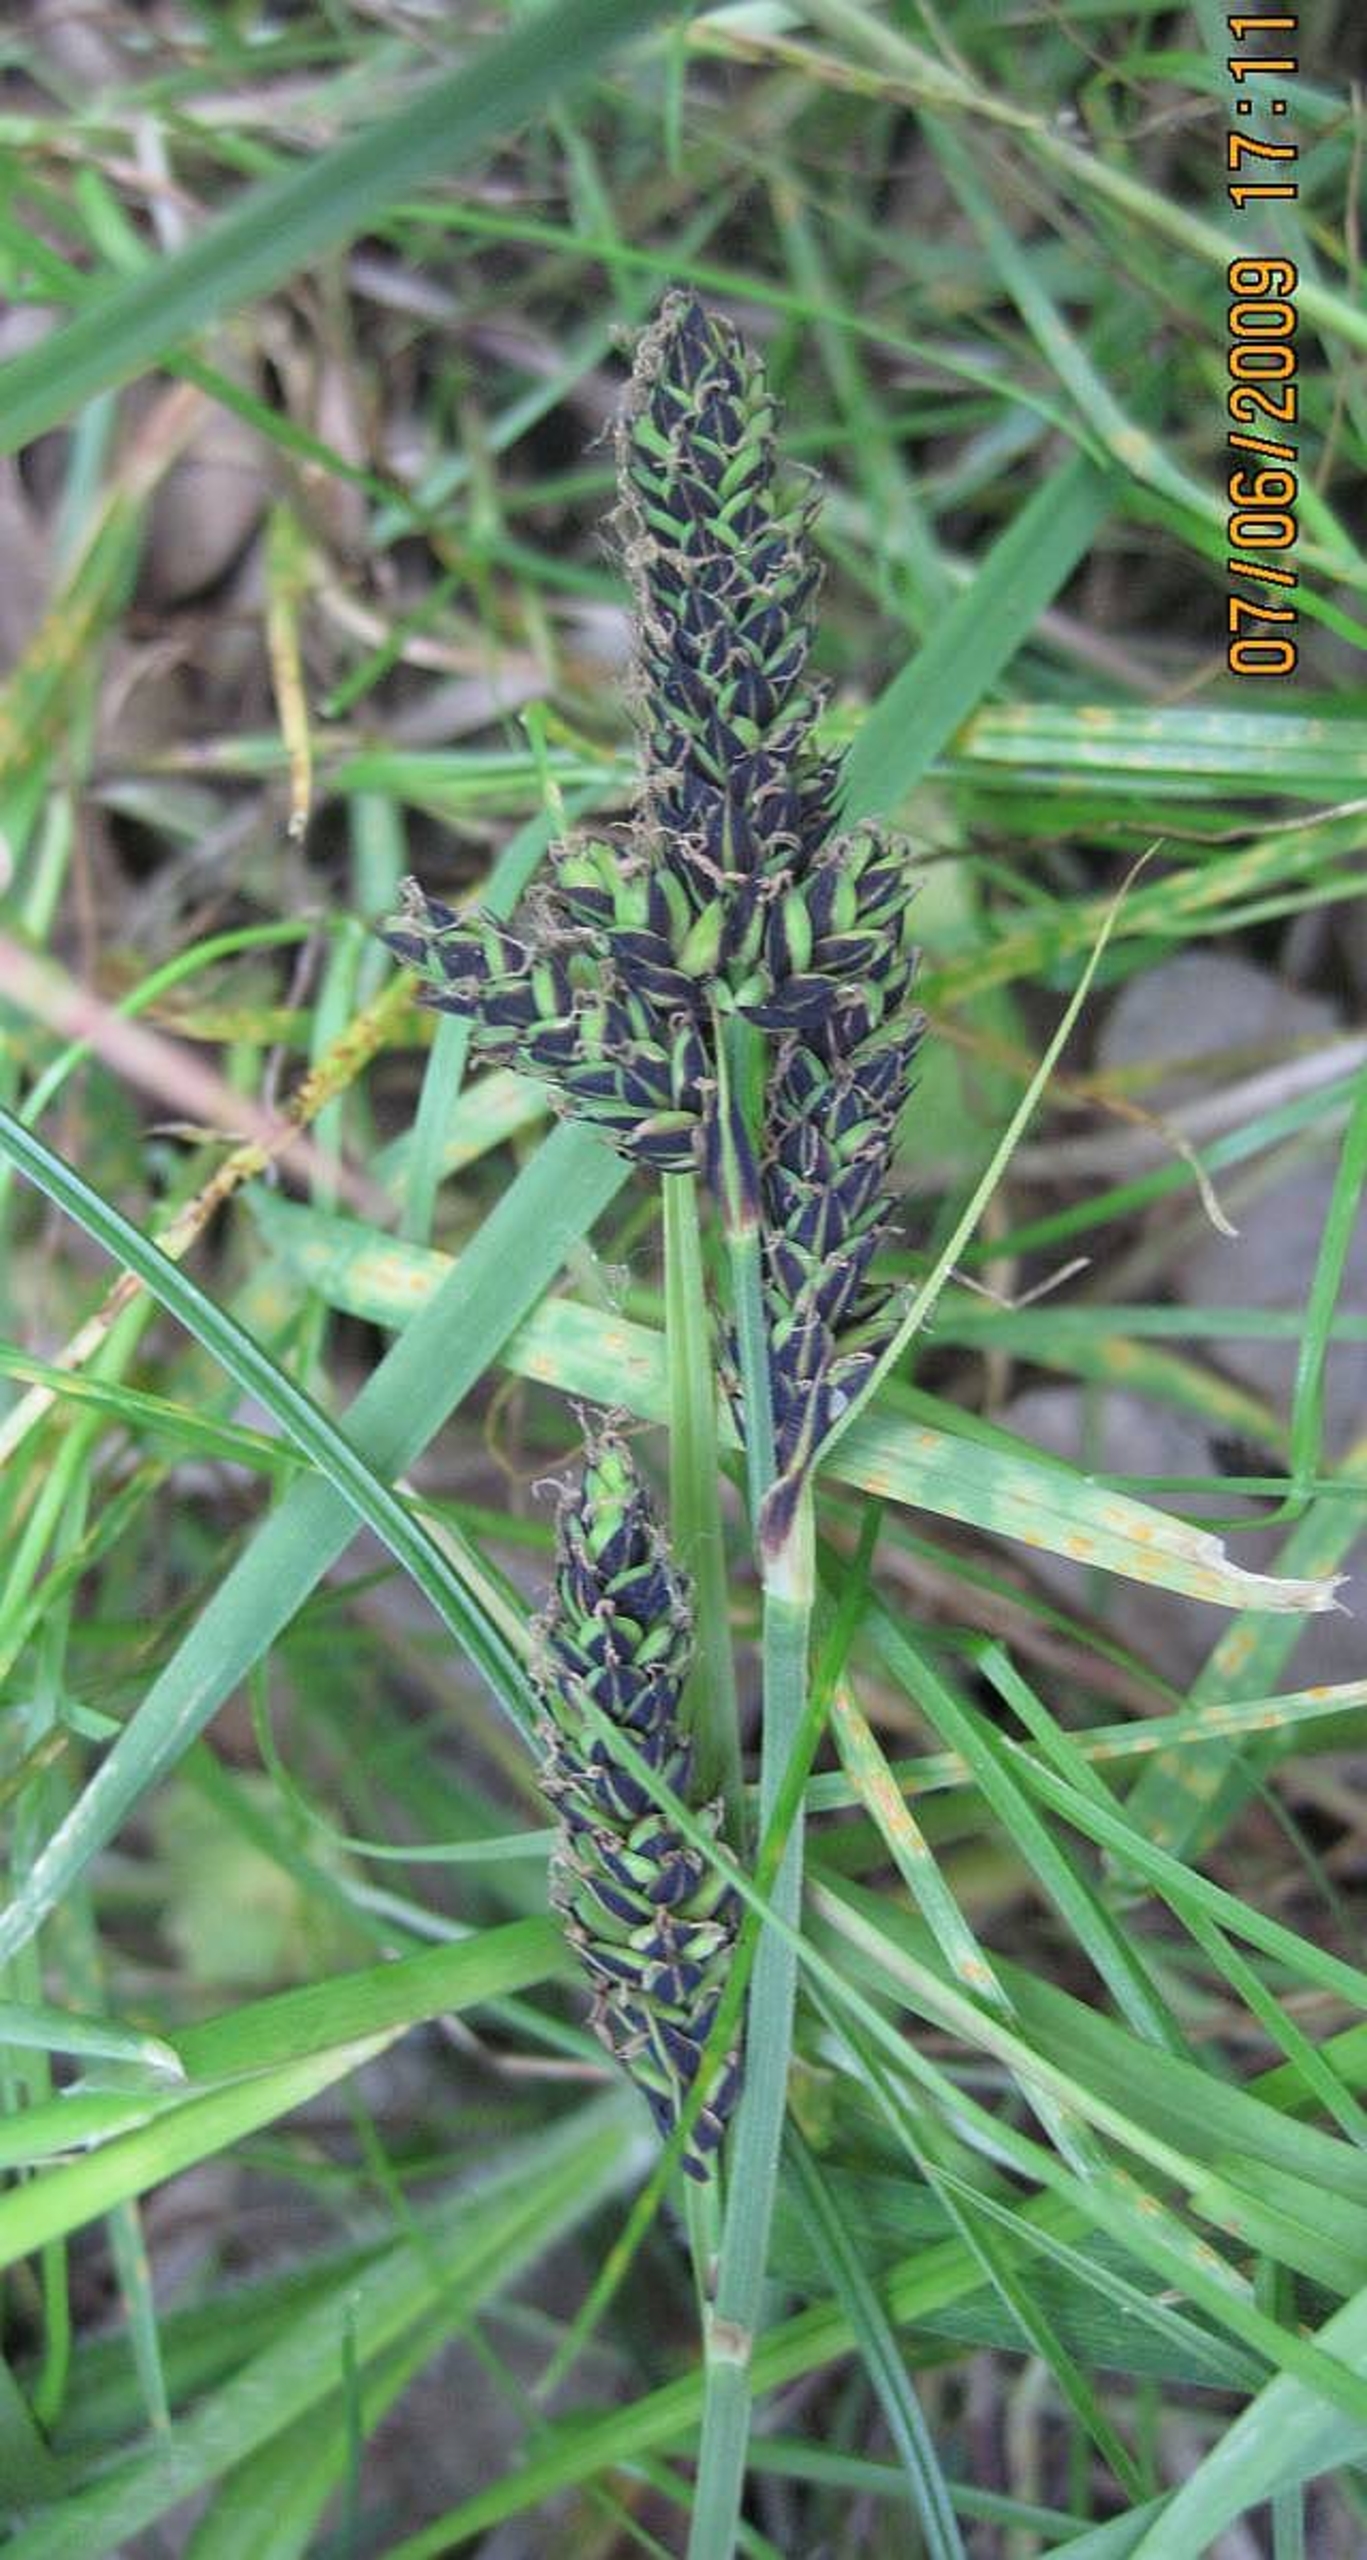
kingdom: Plantae
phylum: Tracheophyta
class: Liliopsida
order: Poales
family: Cyperaceae
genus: Carex
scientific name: Carex hartmaniorum
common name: Hartmans star
